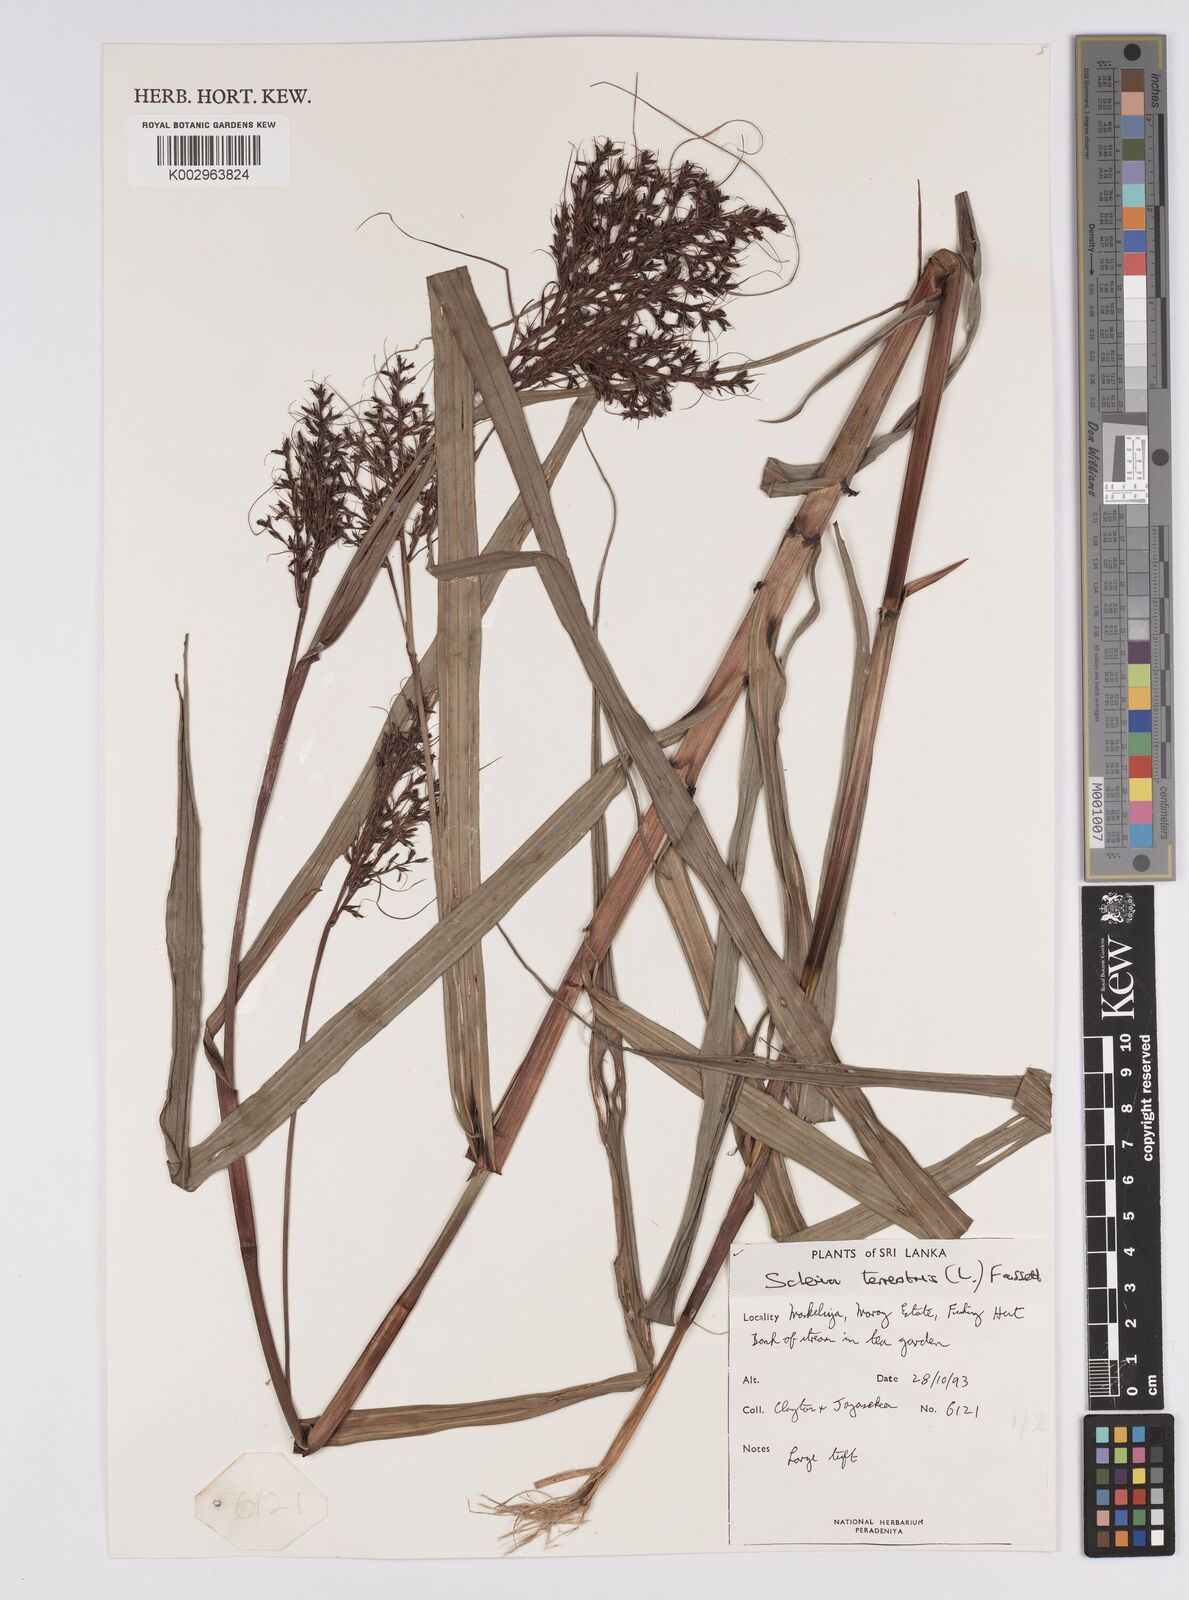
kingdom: Plantae
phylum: Tracheophyta
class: Liliopsida
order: Poales
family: Cyperaceae
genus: Scleria
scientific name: Scleria terrestris
